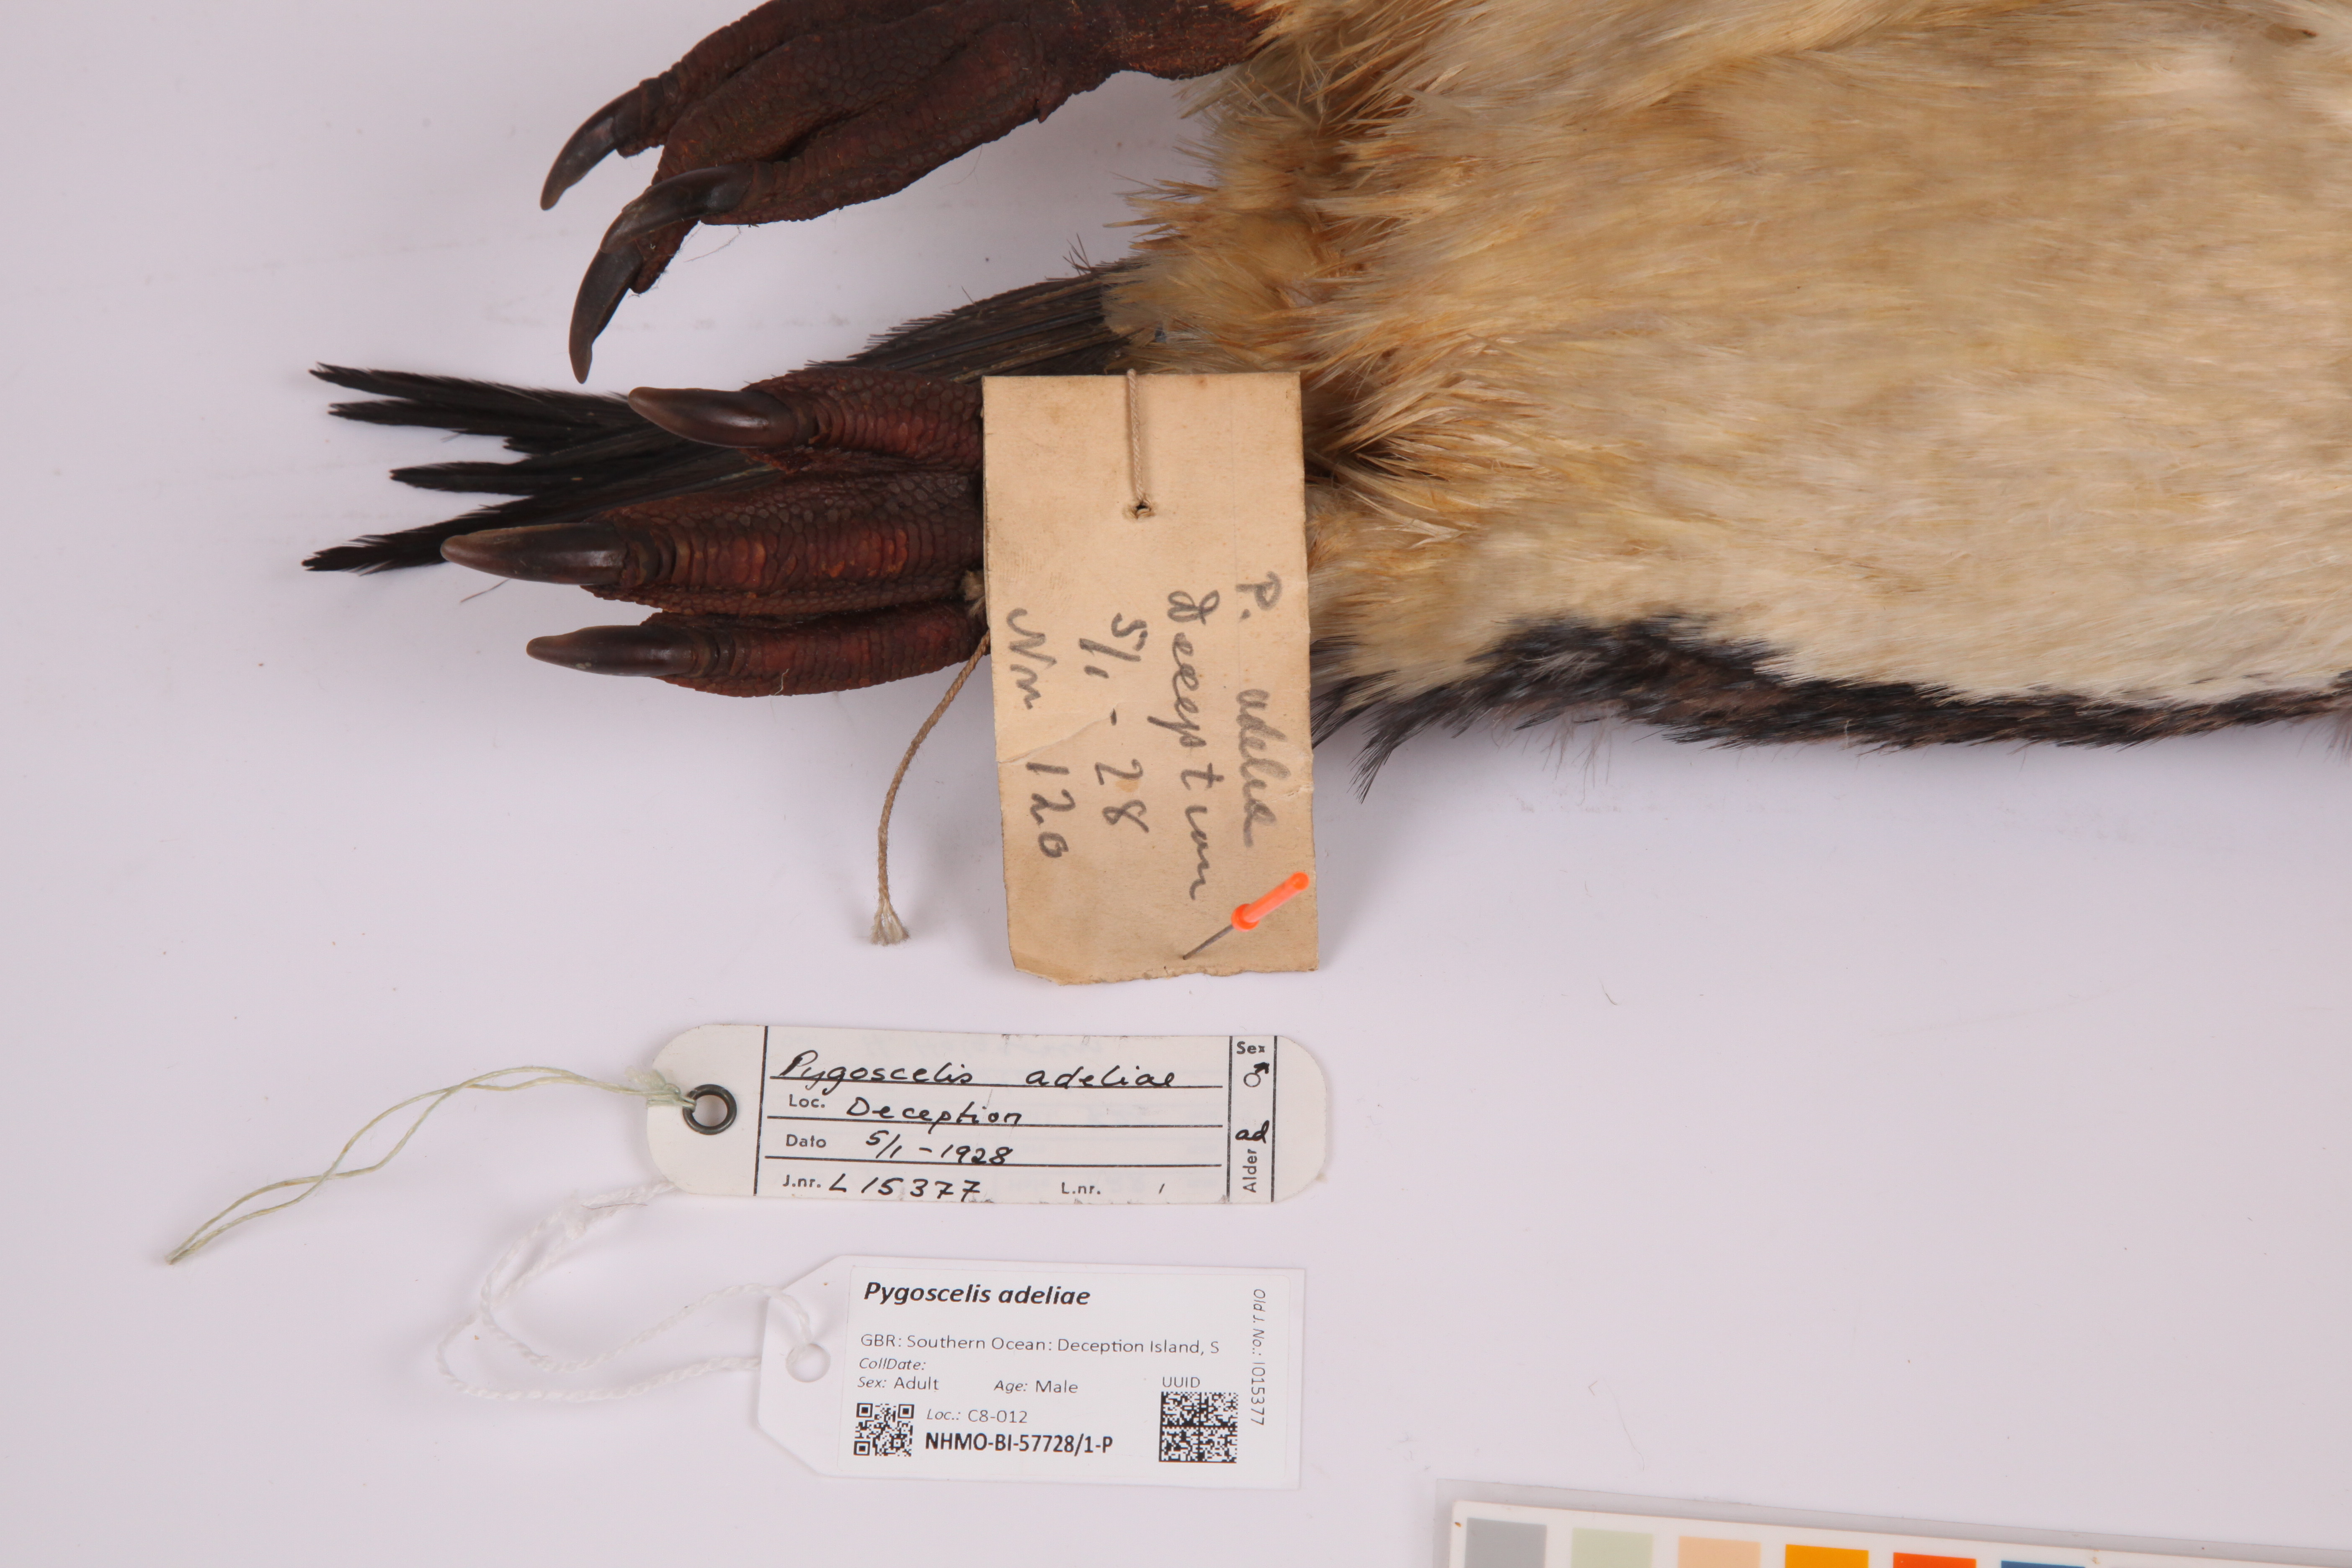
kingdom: Animalia
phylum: Chordata
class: Aves
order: Sphenisciformes
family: Spheniscidae
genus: Pygoscelis
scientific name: Pygoscelis adeliae
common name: Adelie penguin
